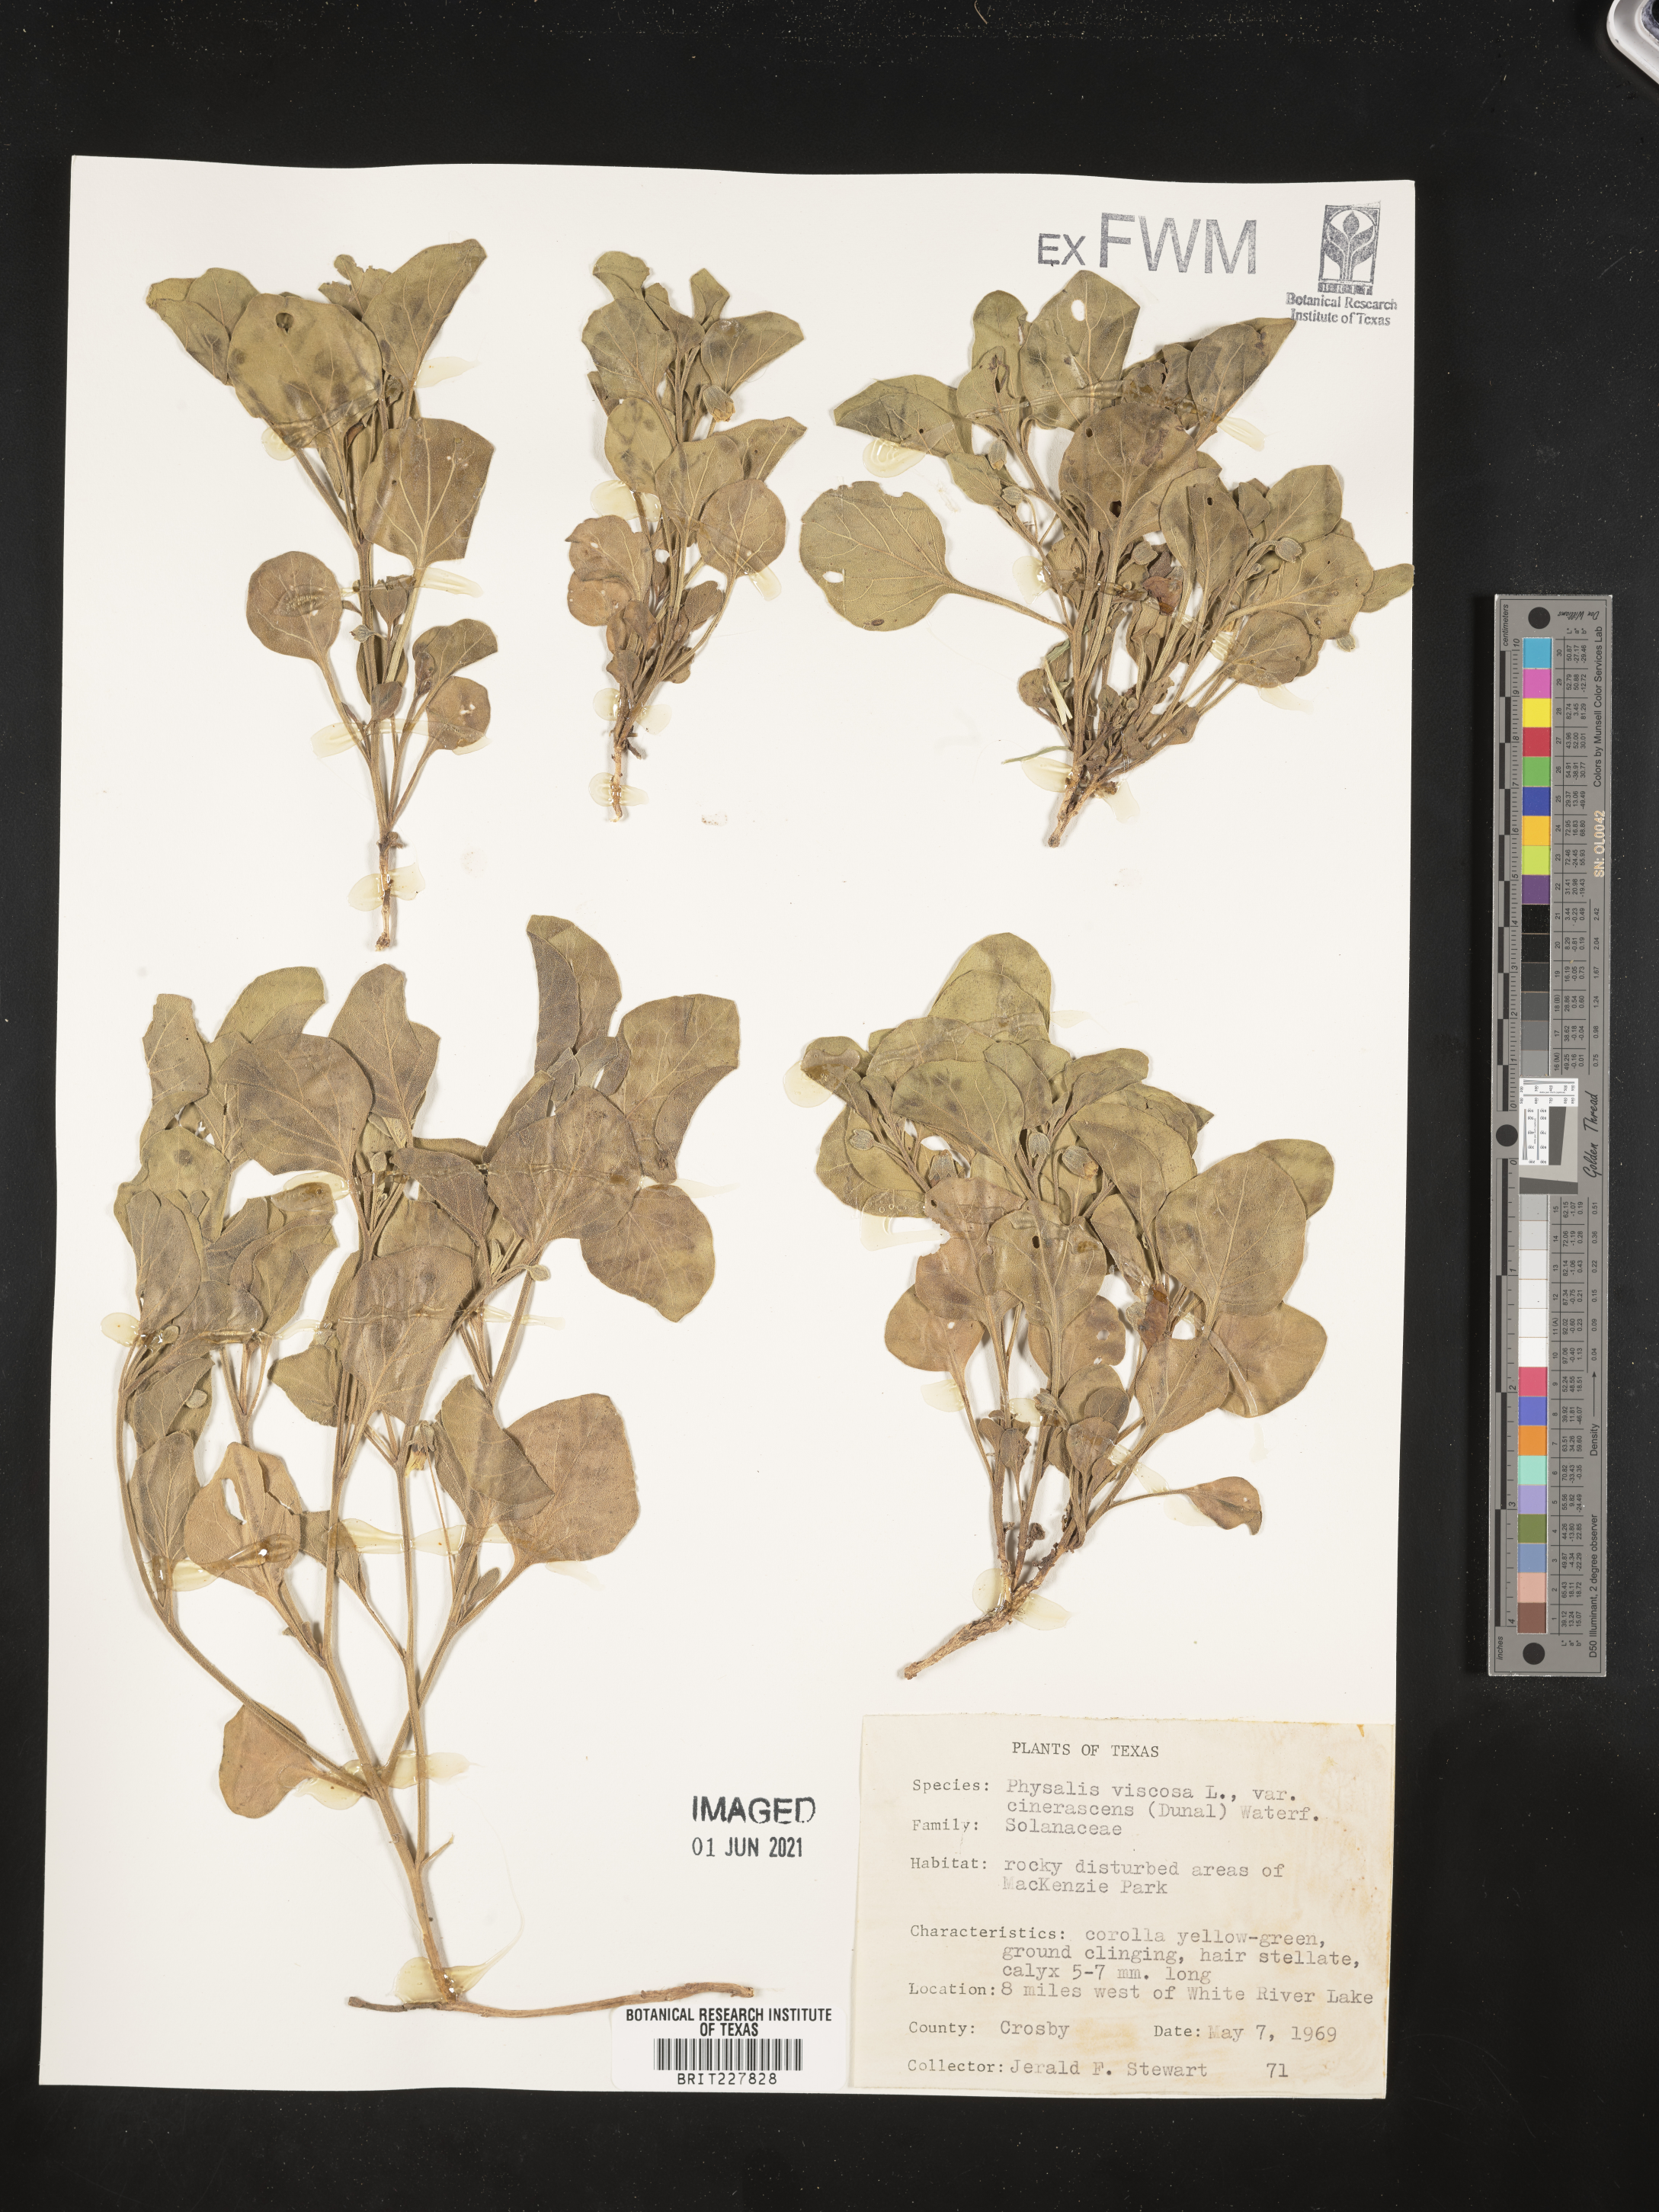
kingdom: Plantae
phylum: Tracheophyta
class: Magnoliopsida
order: Solanales
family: Solanaceae
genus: Physalis
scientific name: Physalis cinerascens
